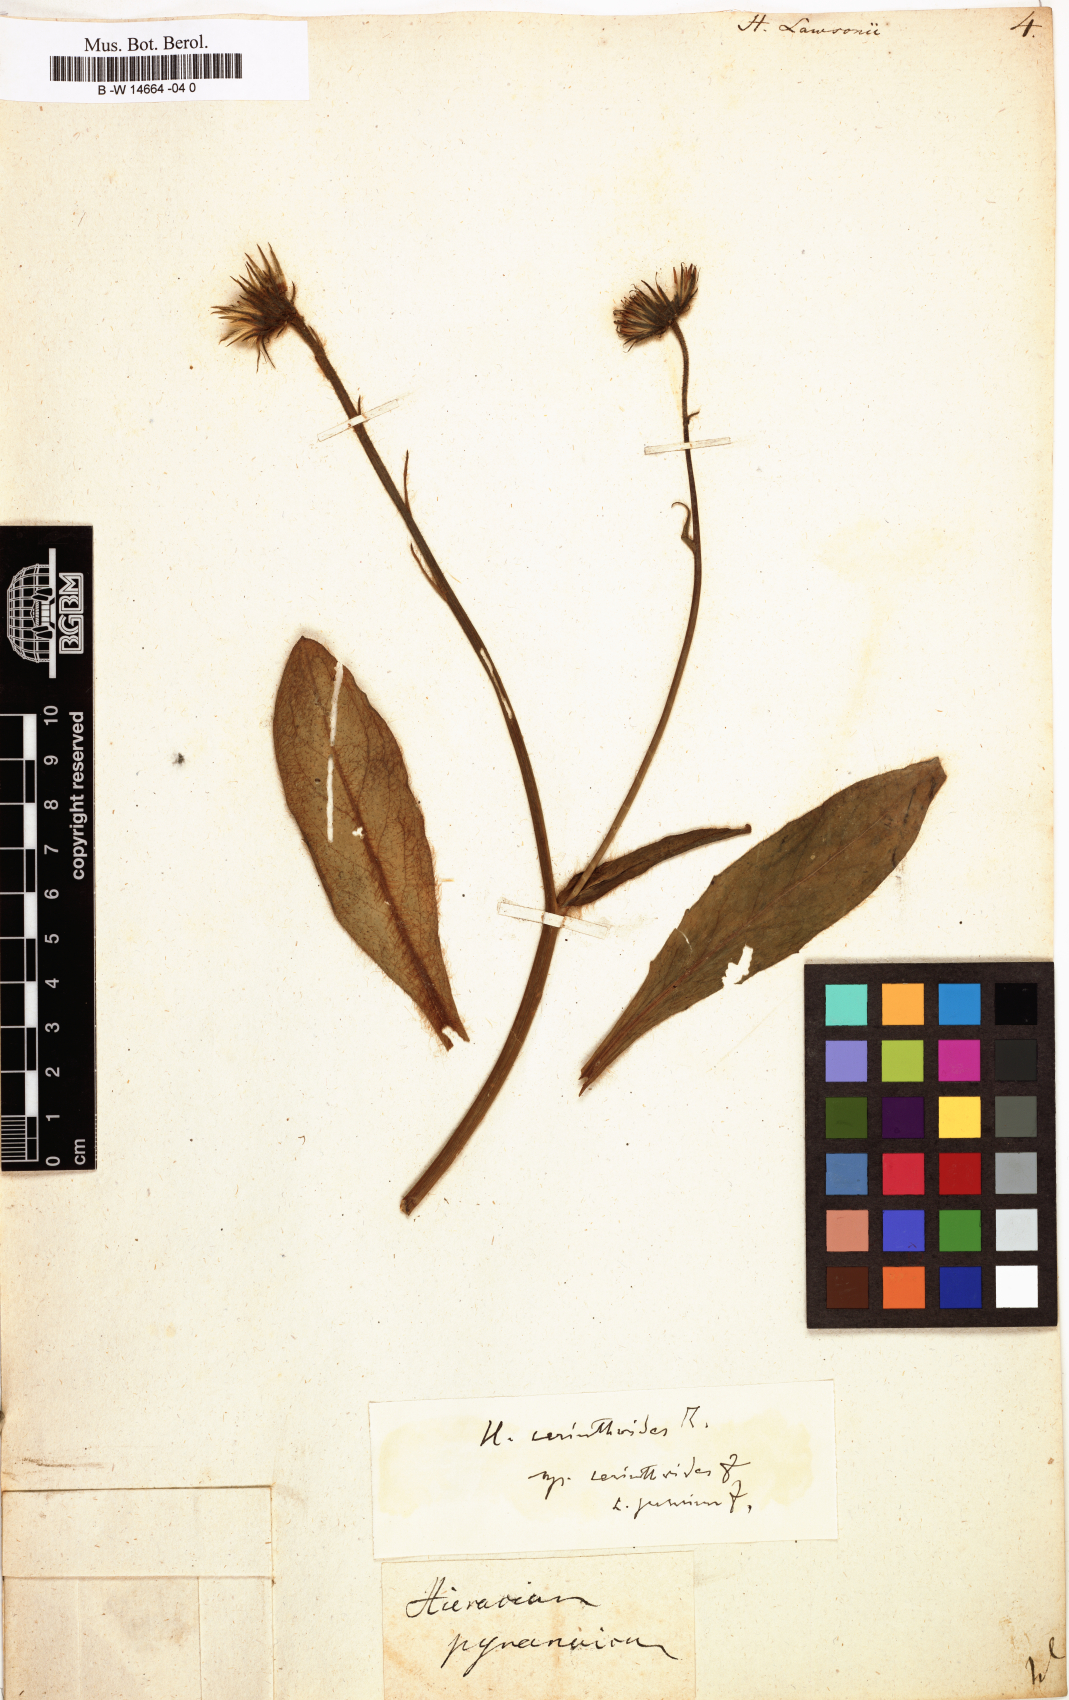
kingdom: Plantae
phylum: Tracheophyta
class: Magnoliopsida
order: Asterales
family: Asteraceae
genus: Hieracium
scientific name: Hieracium lawsonii
